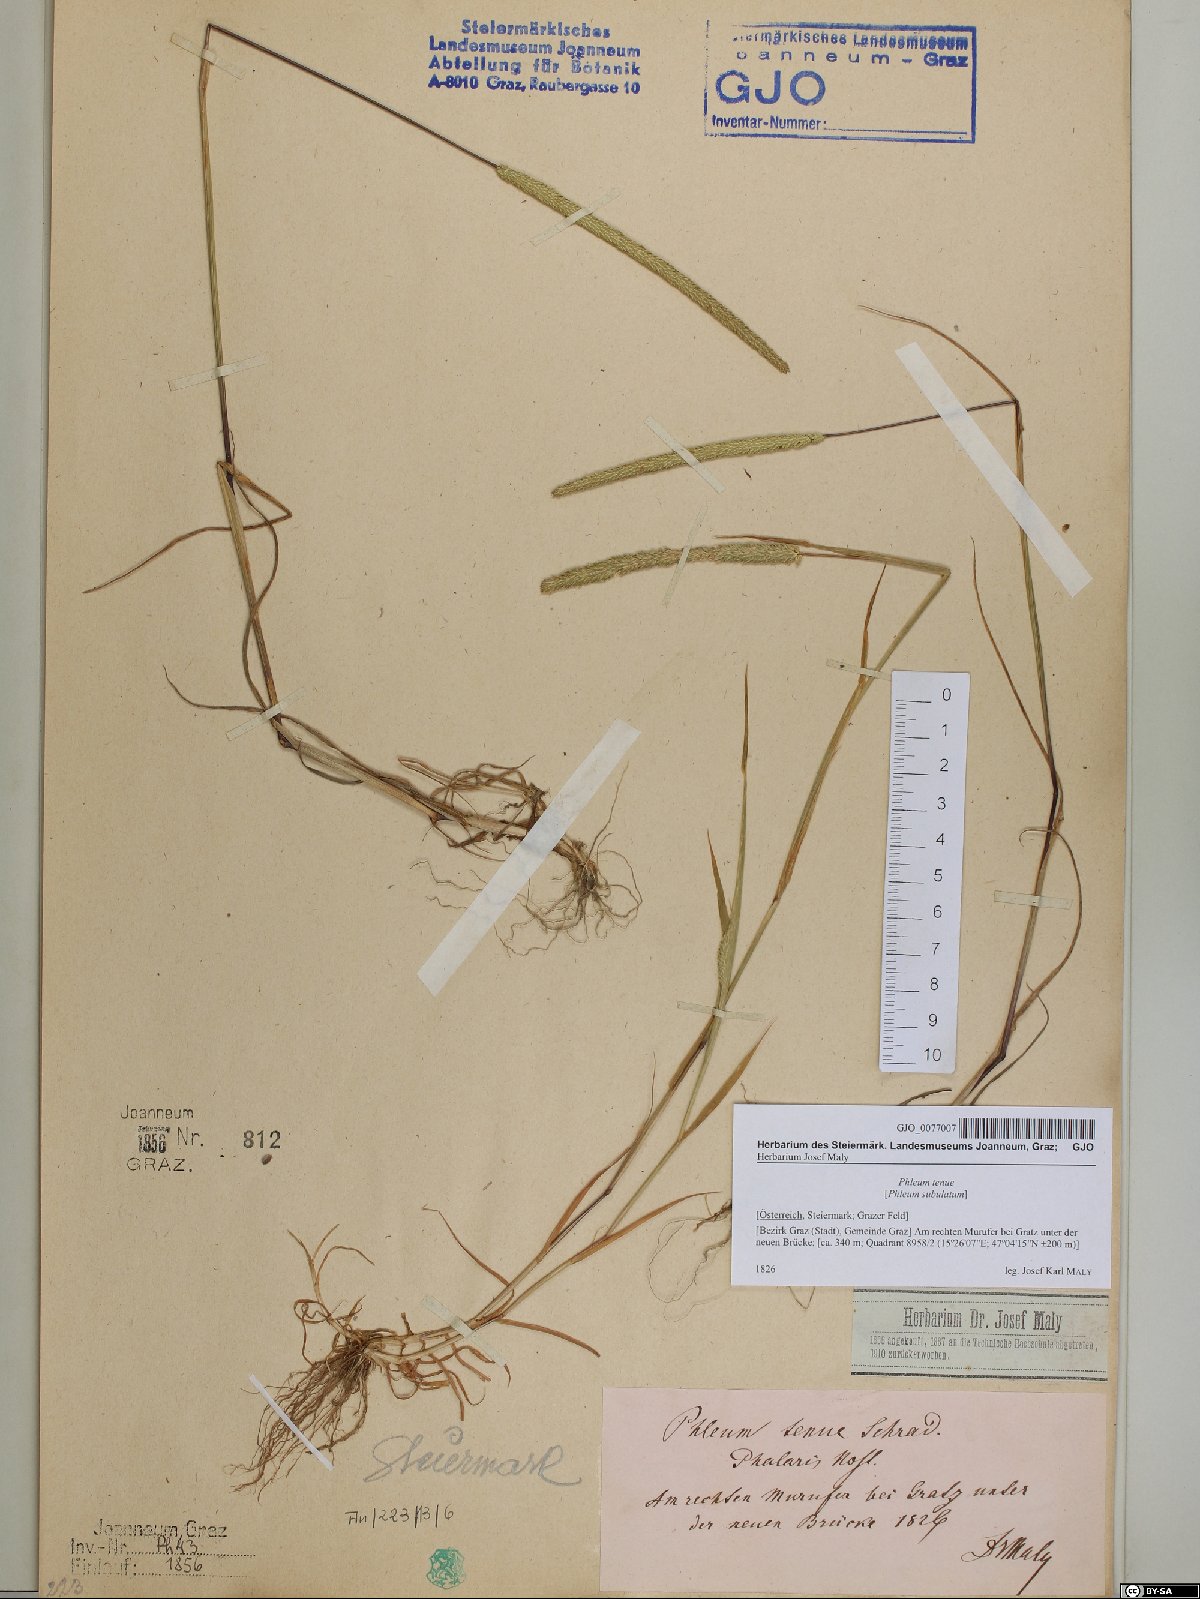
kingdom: Plantae
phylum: Tracheophyta
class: Liliopsida
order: Poales
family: Poaceae
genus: Phleum
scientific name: Phleum subulatum
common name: Italian timothy
